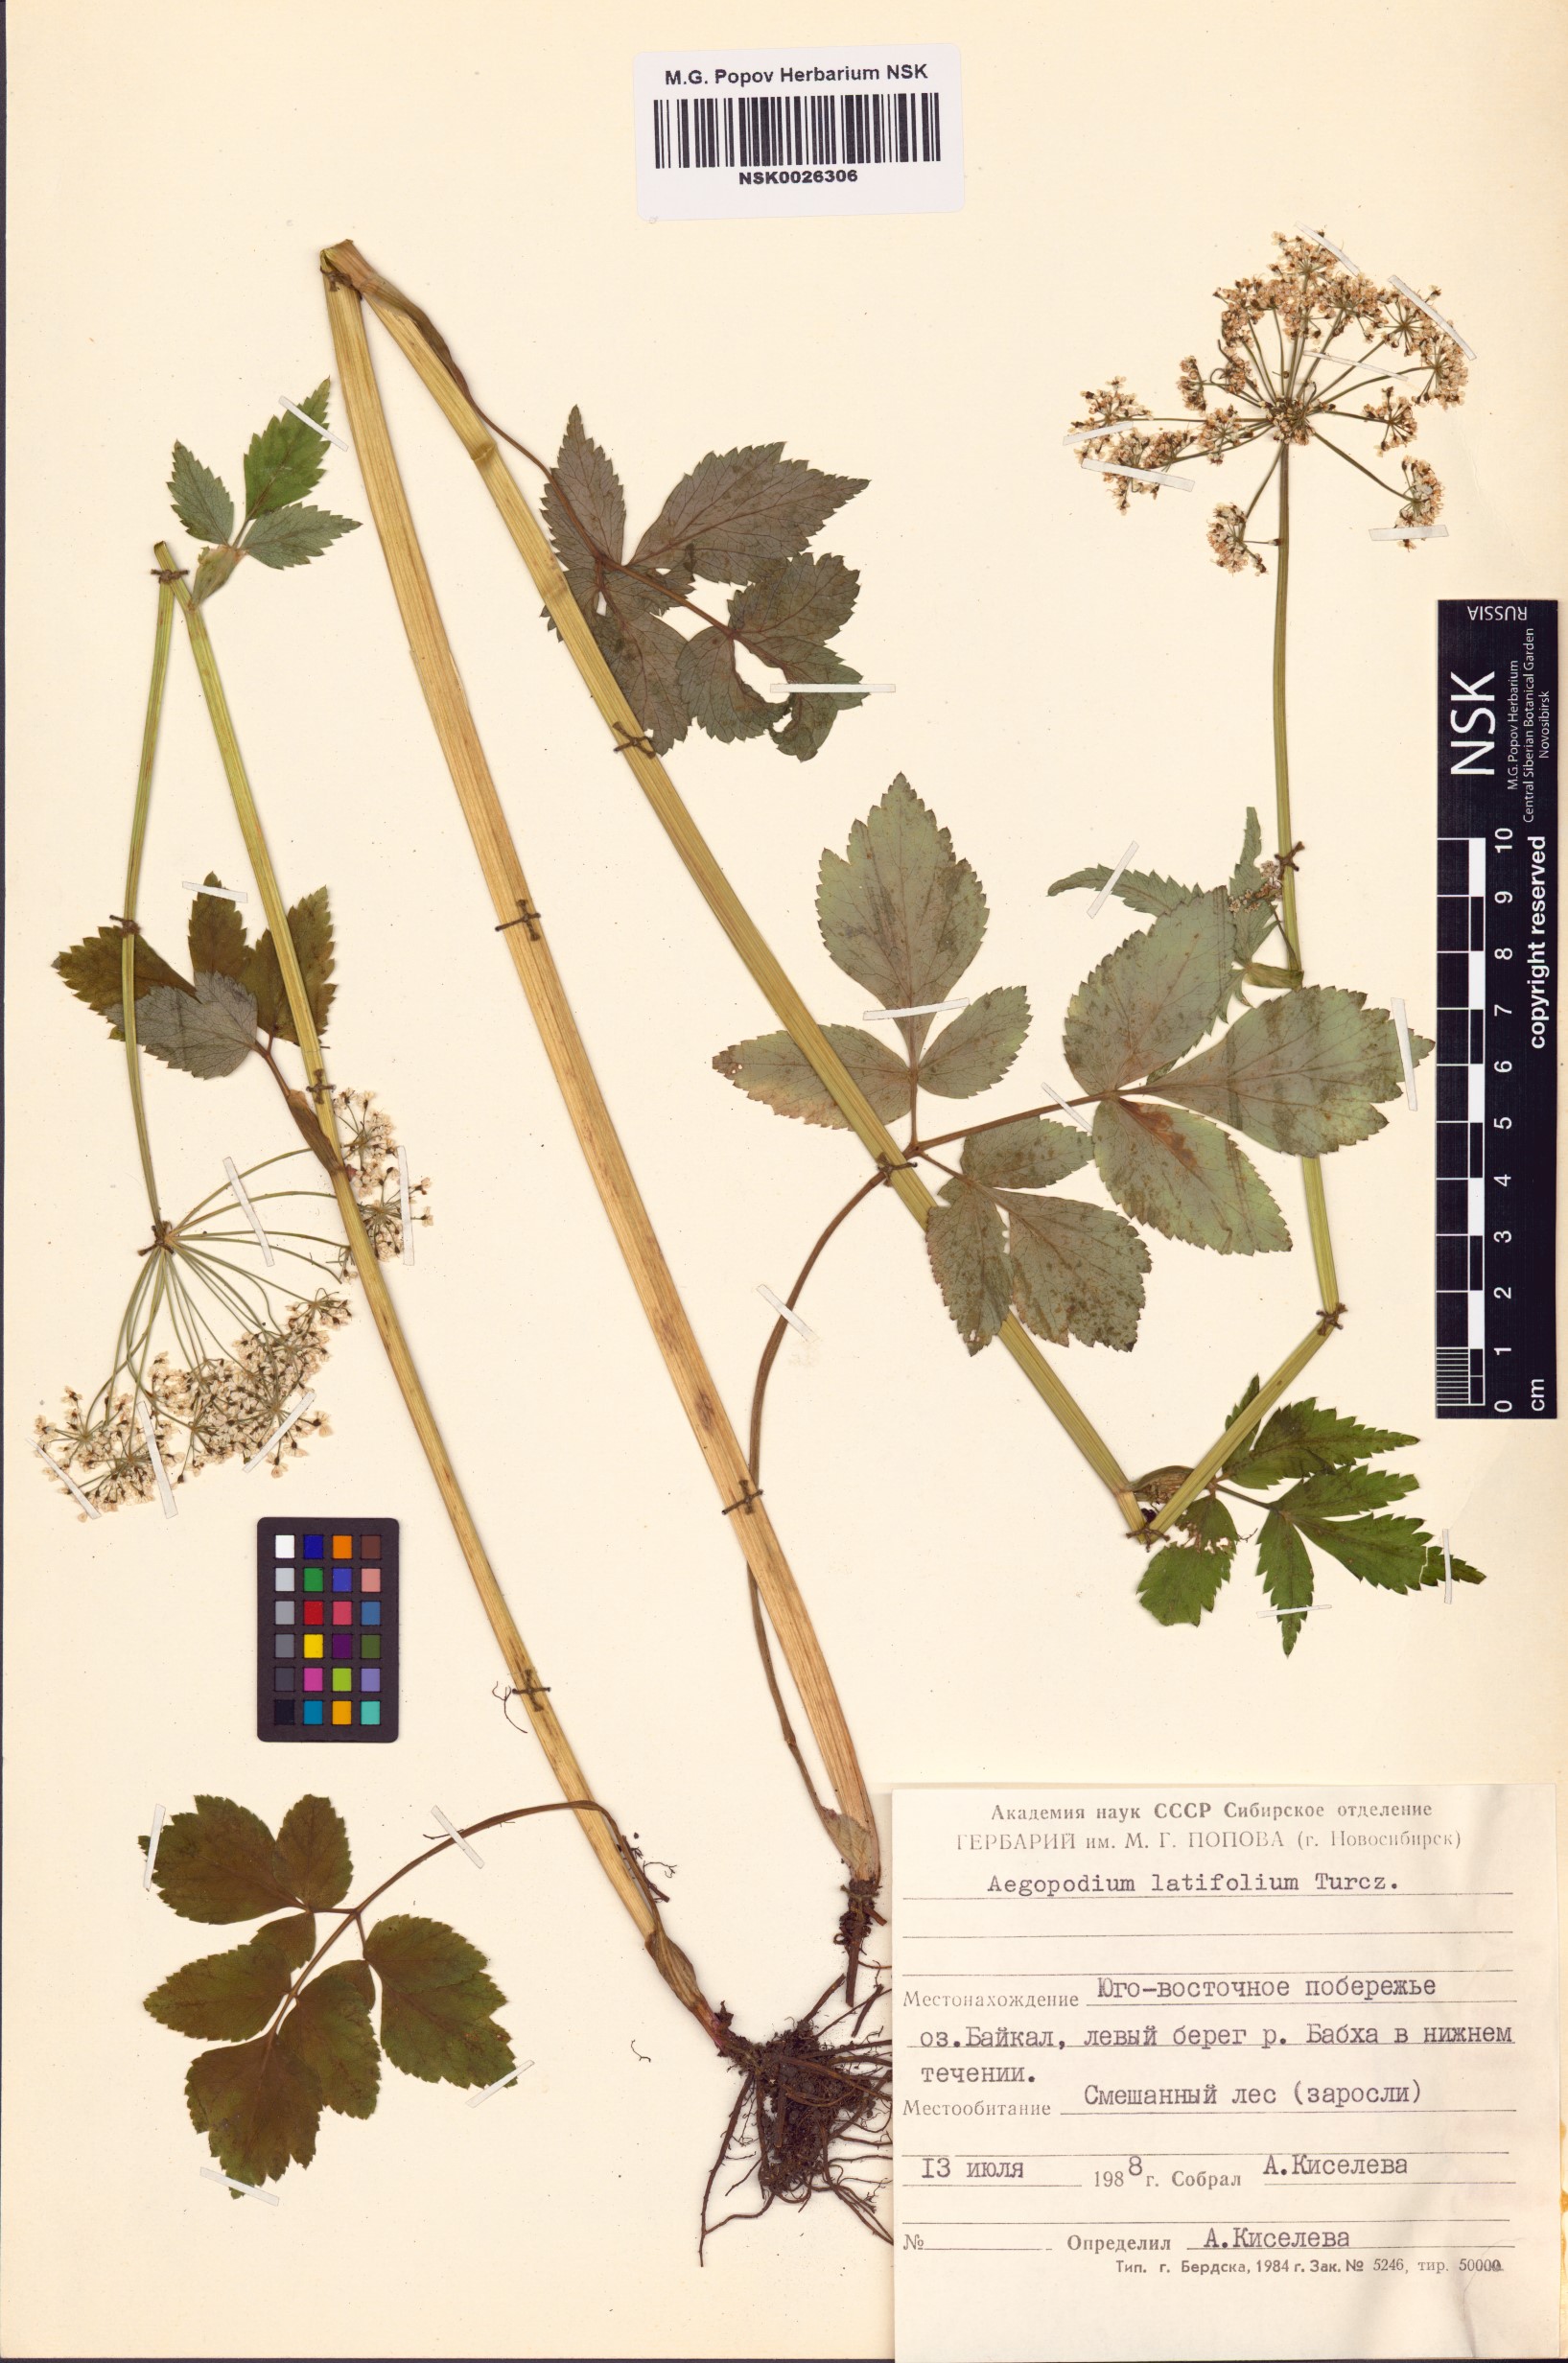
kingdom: Plantae
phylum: Tracheophyta
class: Magnoliopsida
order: Apiales
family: Apiaceae
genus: Aegopodium
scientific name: Aegopodium latifolium
